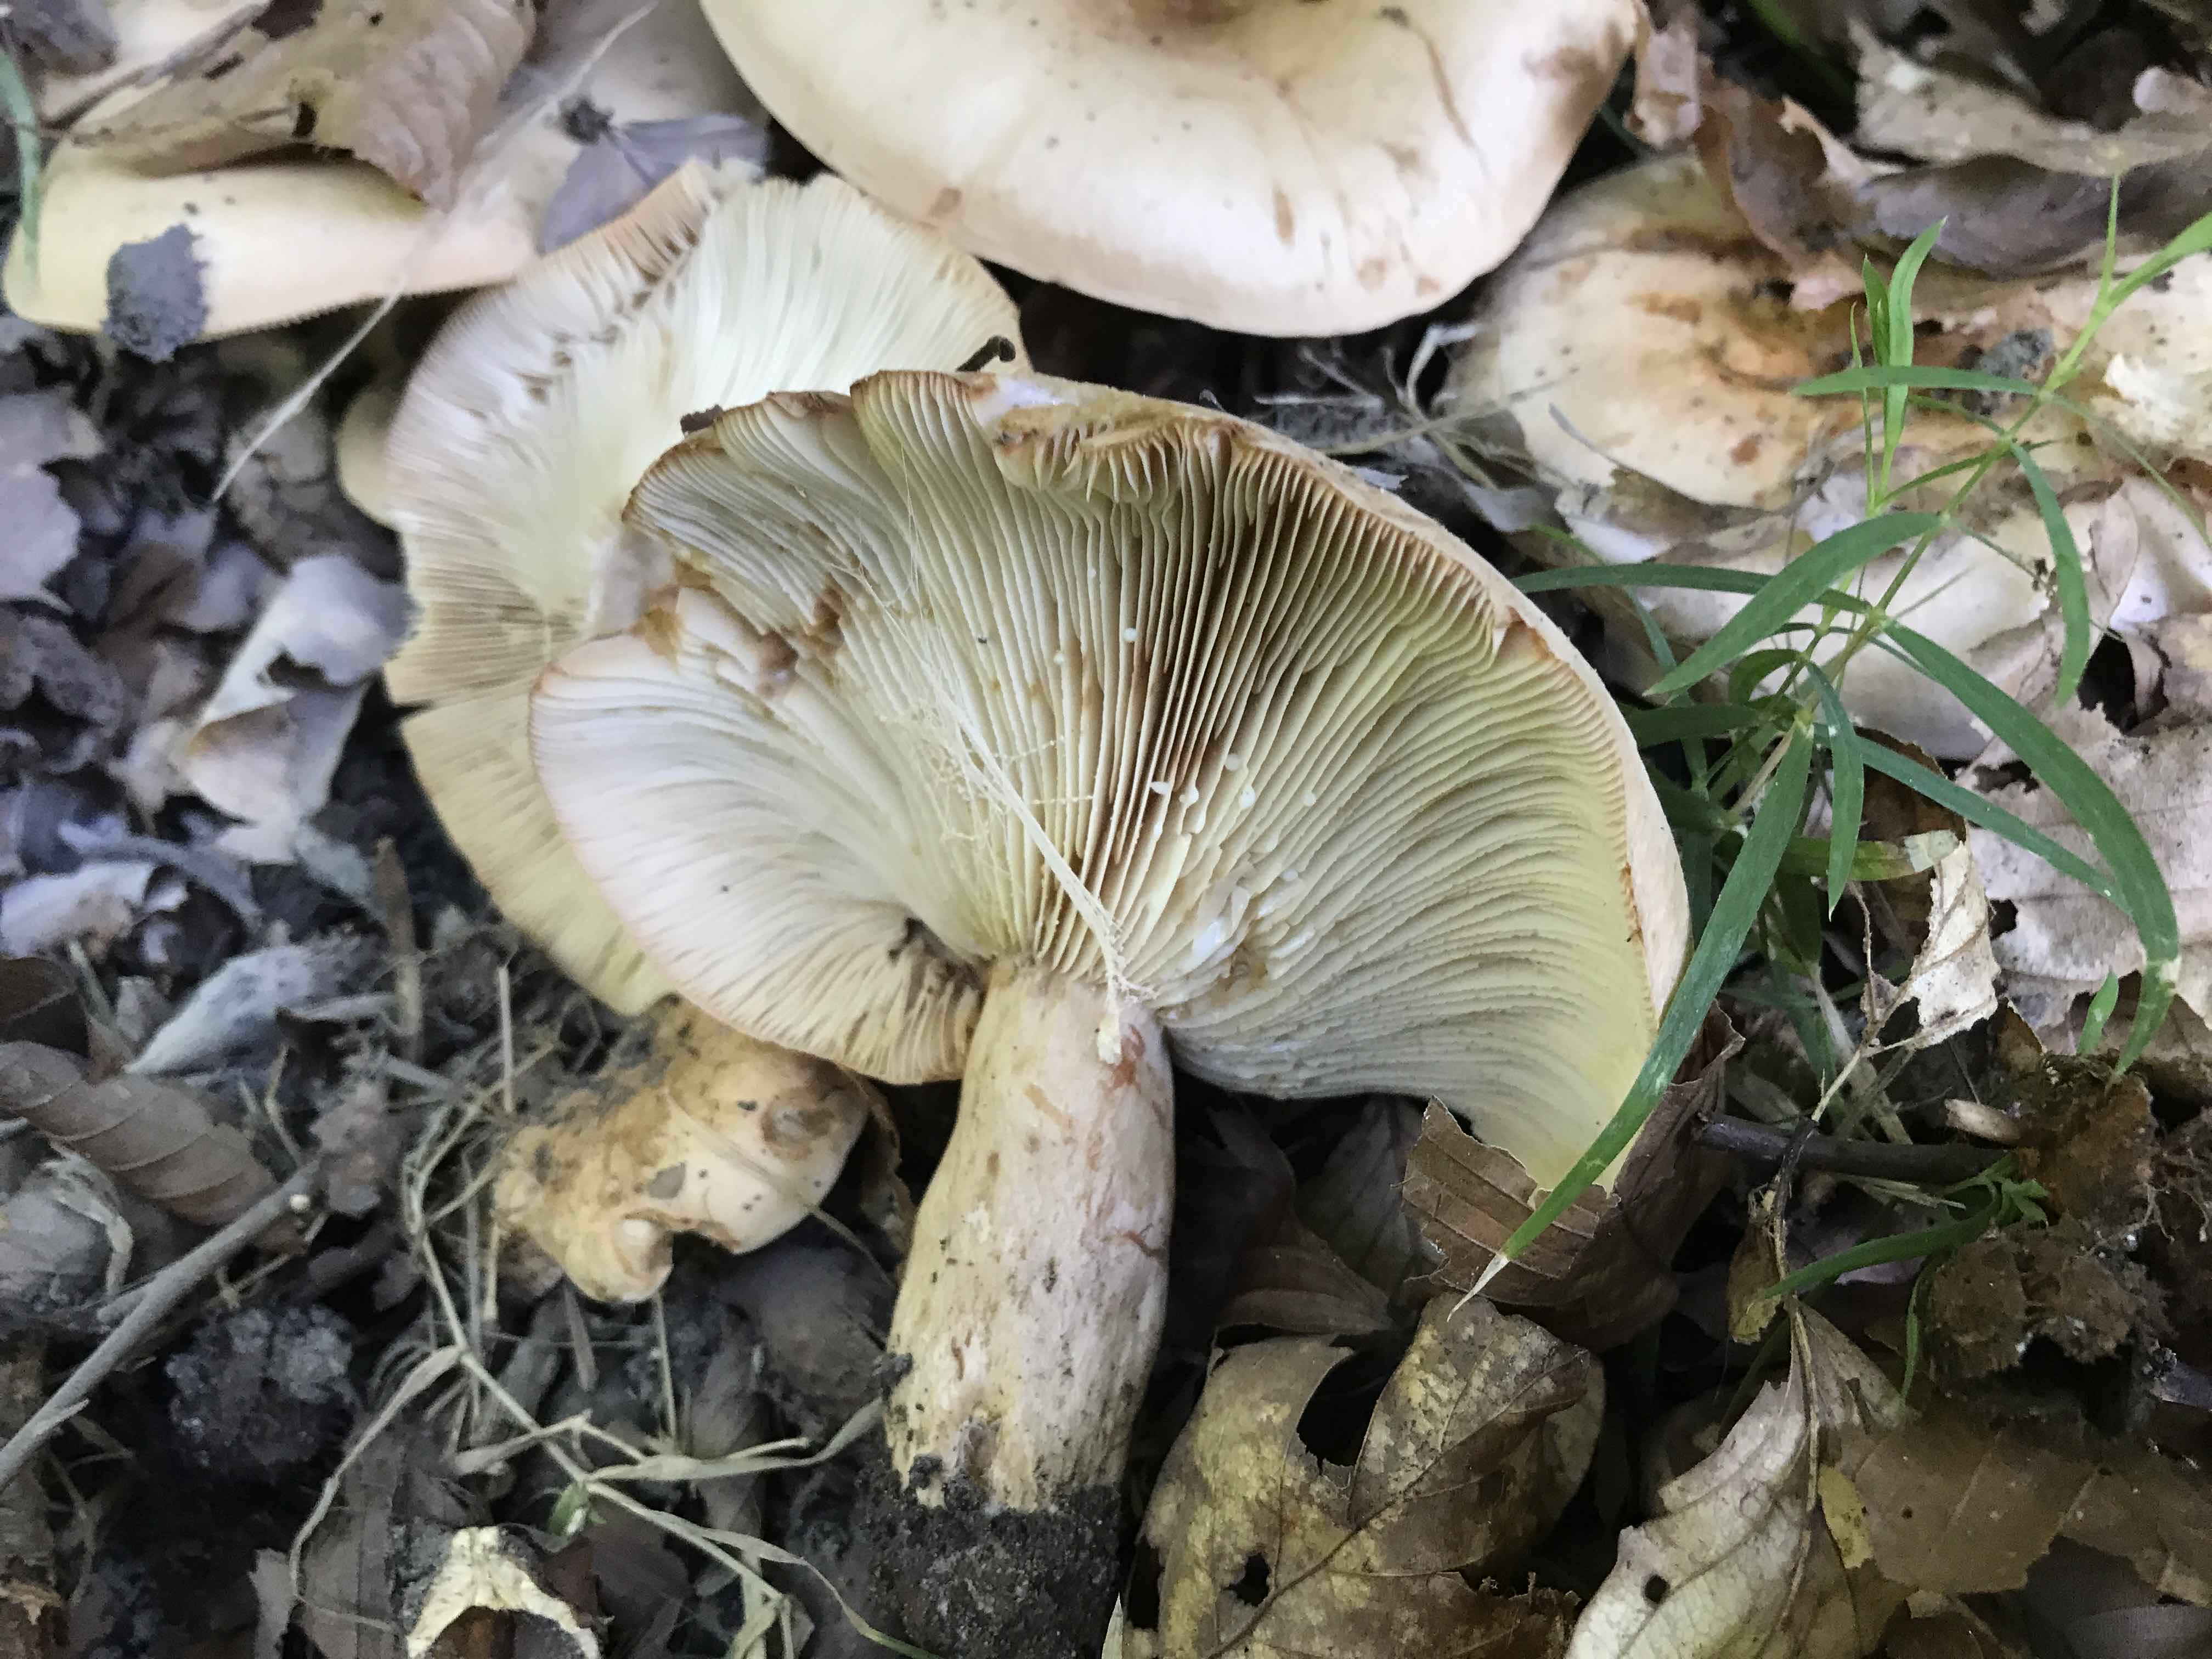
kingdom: Fungi
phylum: Basidiomycota
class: Agaricomycetes
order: Russulales
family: Russulaceae
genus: Lactarius
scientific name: Lactarius pallidus
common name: bleg mælkehat
